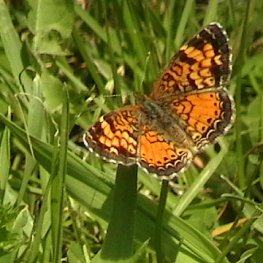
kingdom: Animalia
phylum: Arthropoda
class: Insecta
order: Lepidoptera
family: Nymphalidae
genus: Phyciodes
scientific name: Phyciodes tharos
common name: Pearl Crescent
